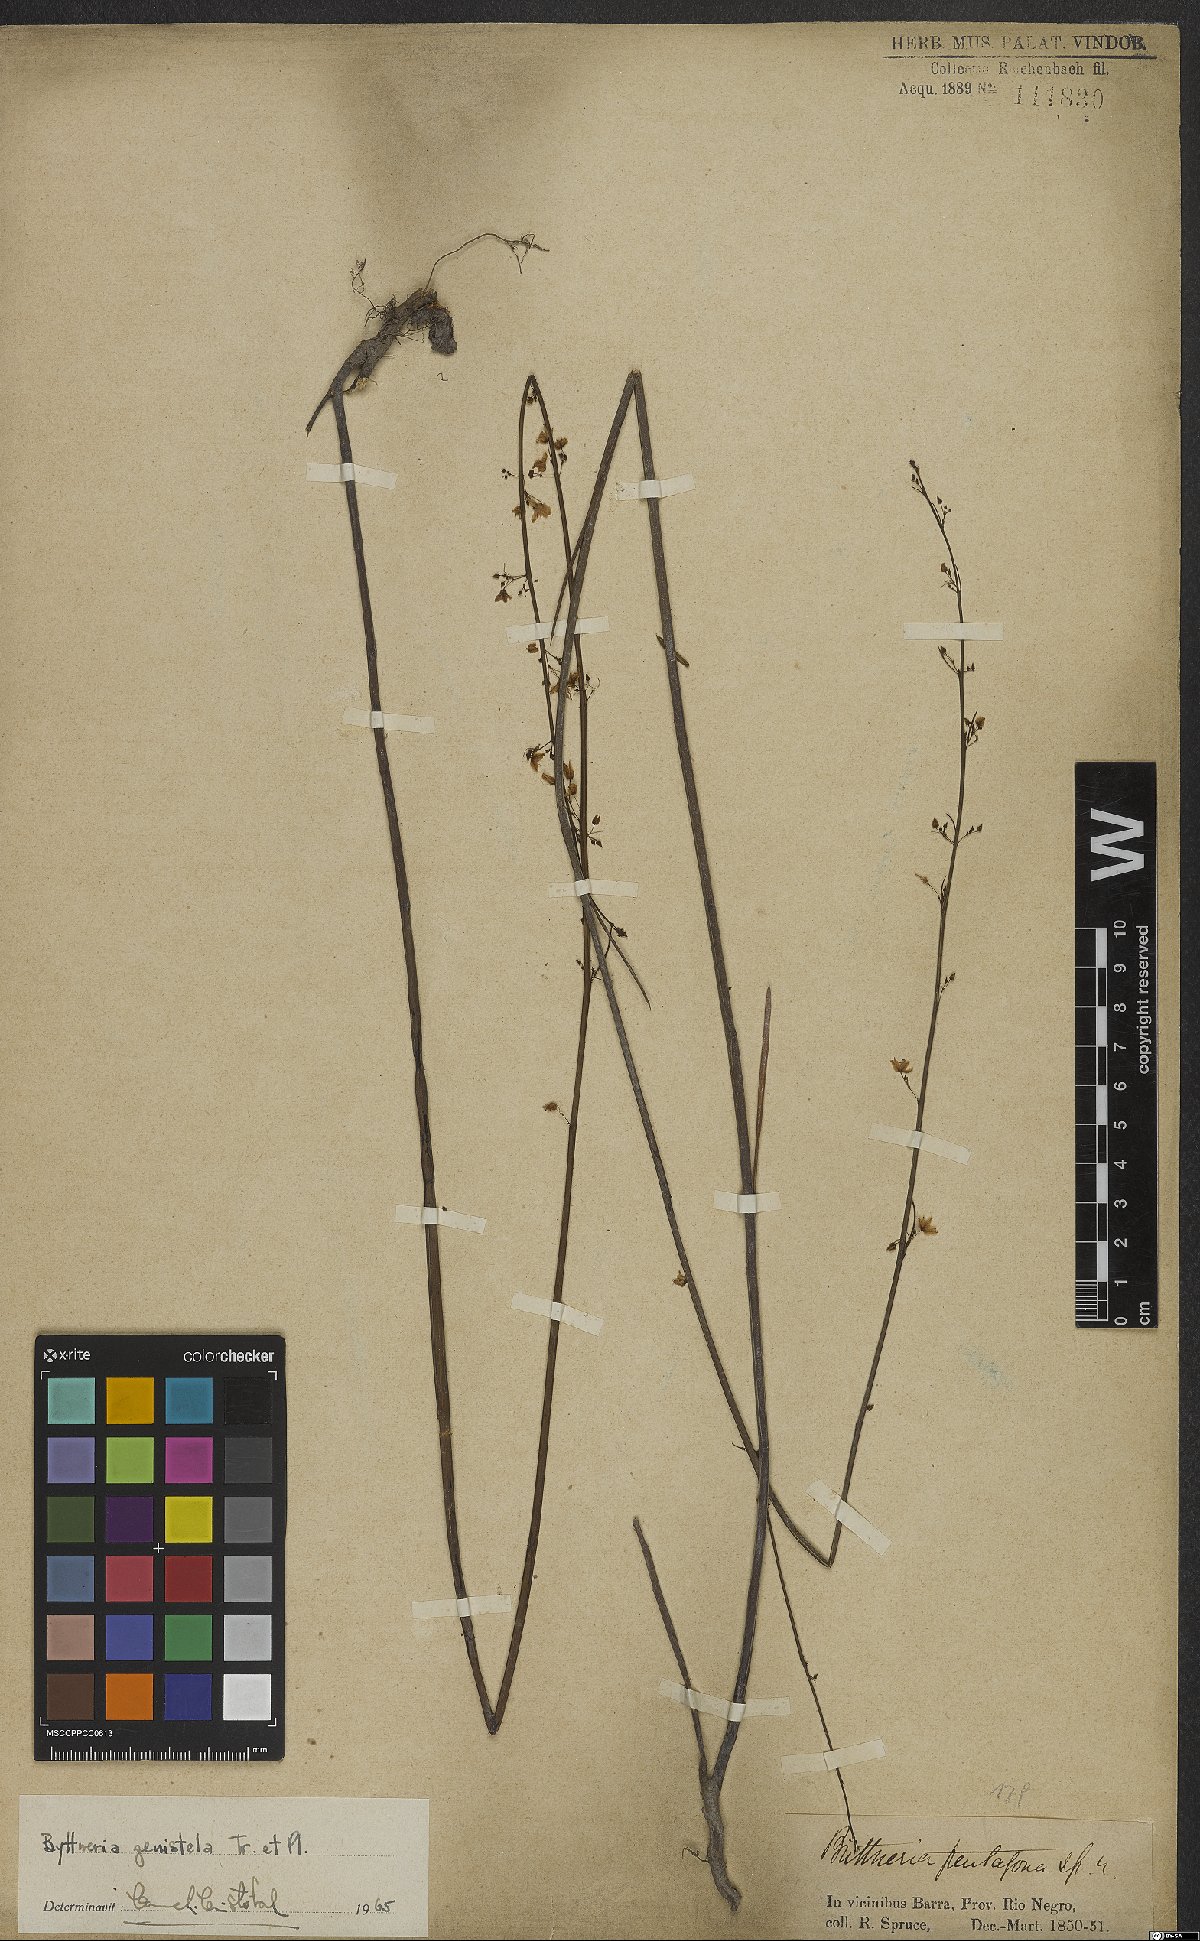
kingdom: Plantae
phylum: Tracheophyta
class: Magnoliopsida
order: Malvales
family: Malvaceae
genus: Byttneria
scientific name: Byttneria genistella
